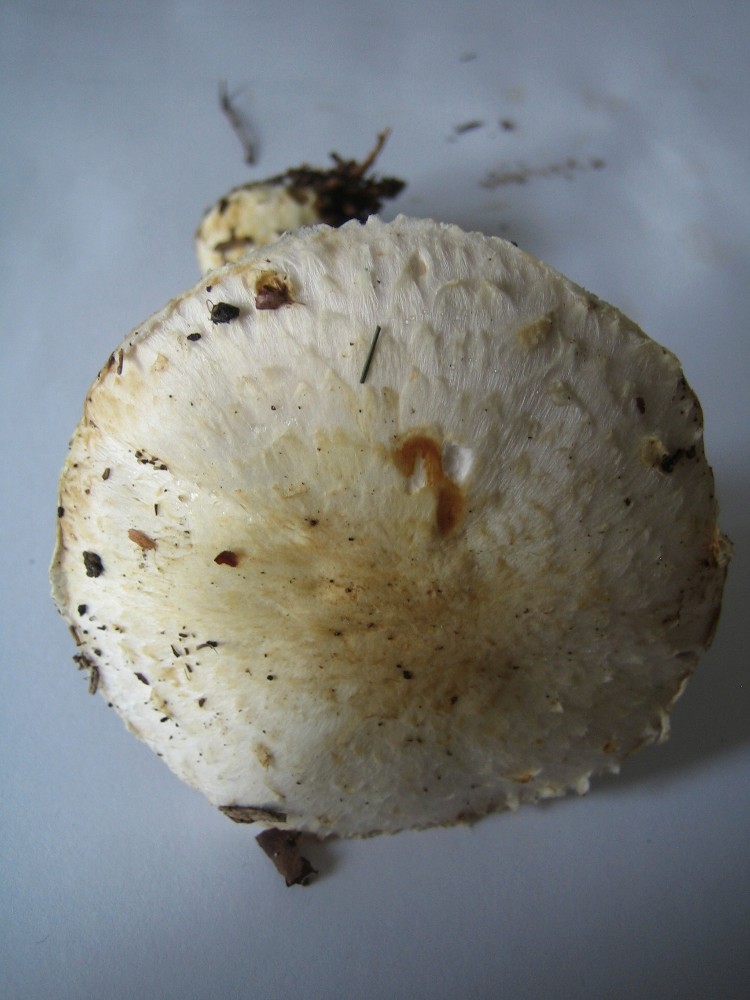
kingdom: Fungi
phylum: Basidiomycota
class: Agaricomycetes
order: Agaricales
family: Agaricaceae
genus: Agaricus
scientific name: Agaricus
